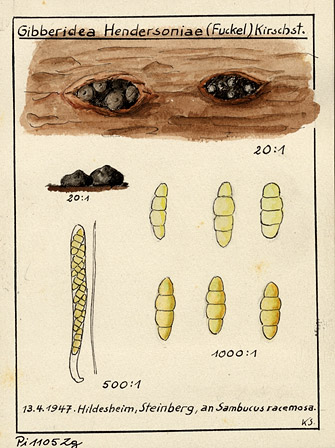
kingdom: Plantae
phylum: Tracheophyta
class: Magnoliopsida
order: Dipsacales
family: Viburnaceae
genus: Sambucus
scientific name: Sambucus racemosa
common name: Red-berried elder
